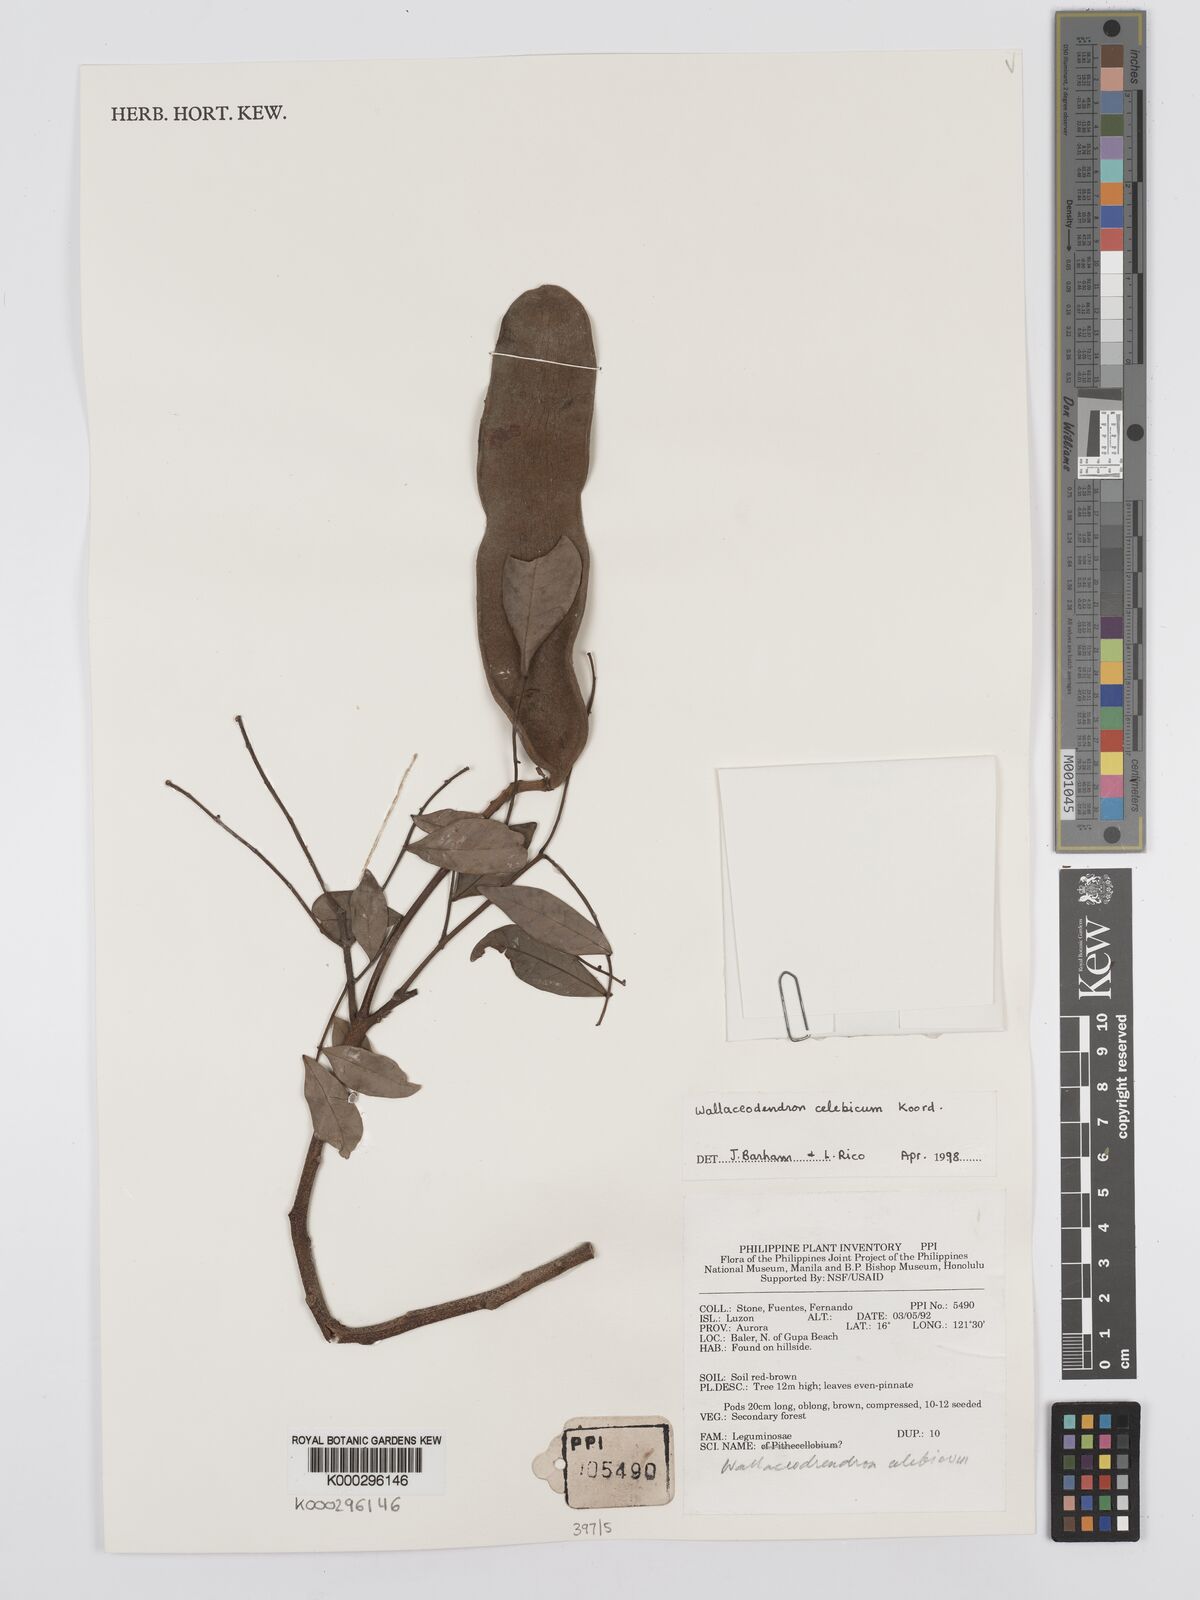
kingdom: Plantae
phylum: Tracheophyta
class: Magnoliopsida
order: Fabales
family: Fabaceae
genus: Wallaceodendron
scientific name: Wallaceodendron celebicum
